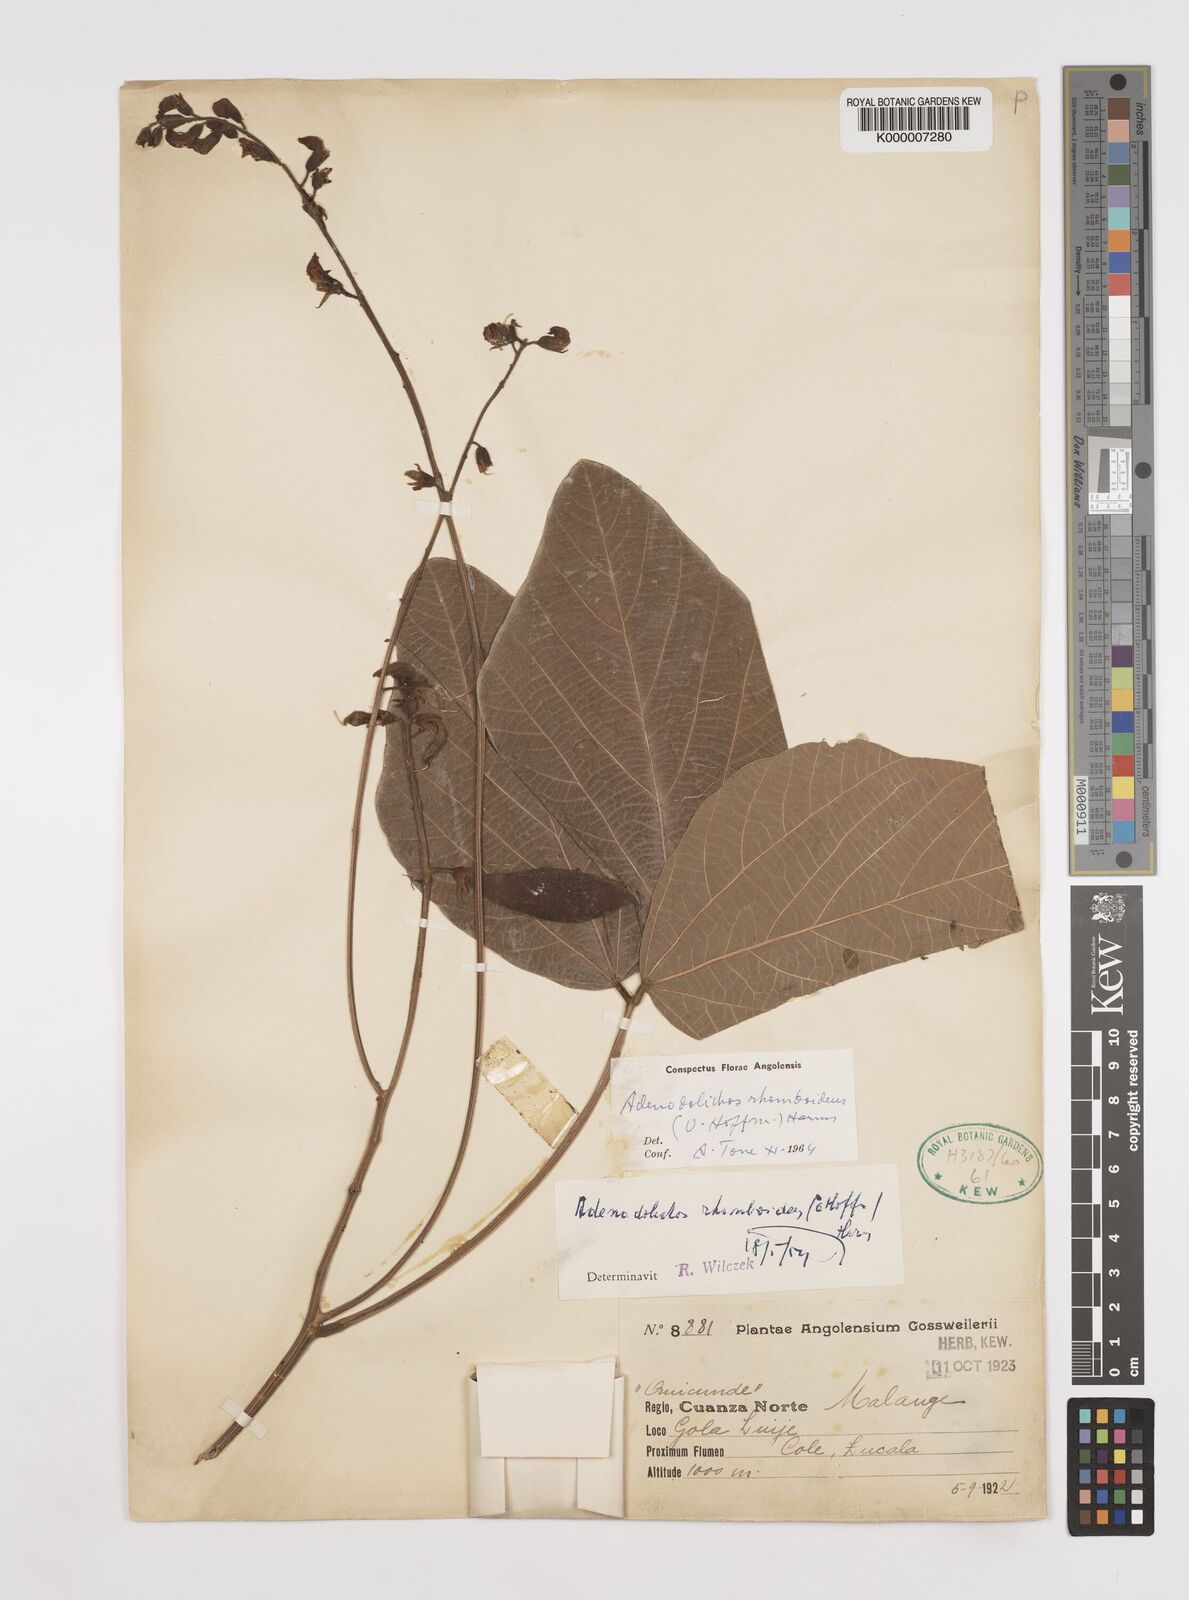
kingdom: Plantae
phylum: Tracheophyta
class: Magnoliopsida
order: Fabales
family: Fabaceae
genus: Adenodolichos
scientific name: Adenodolichos rhomboideus
